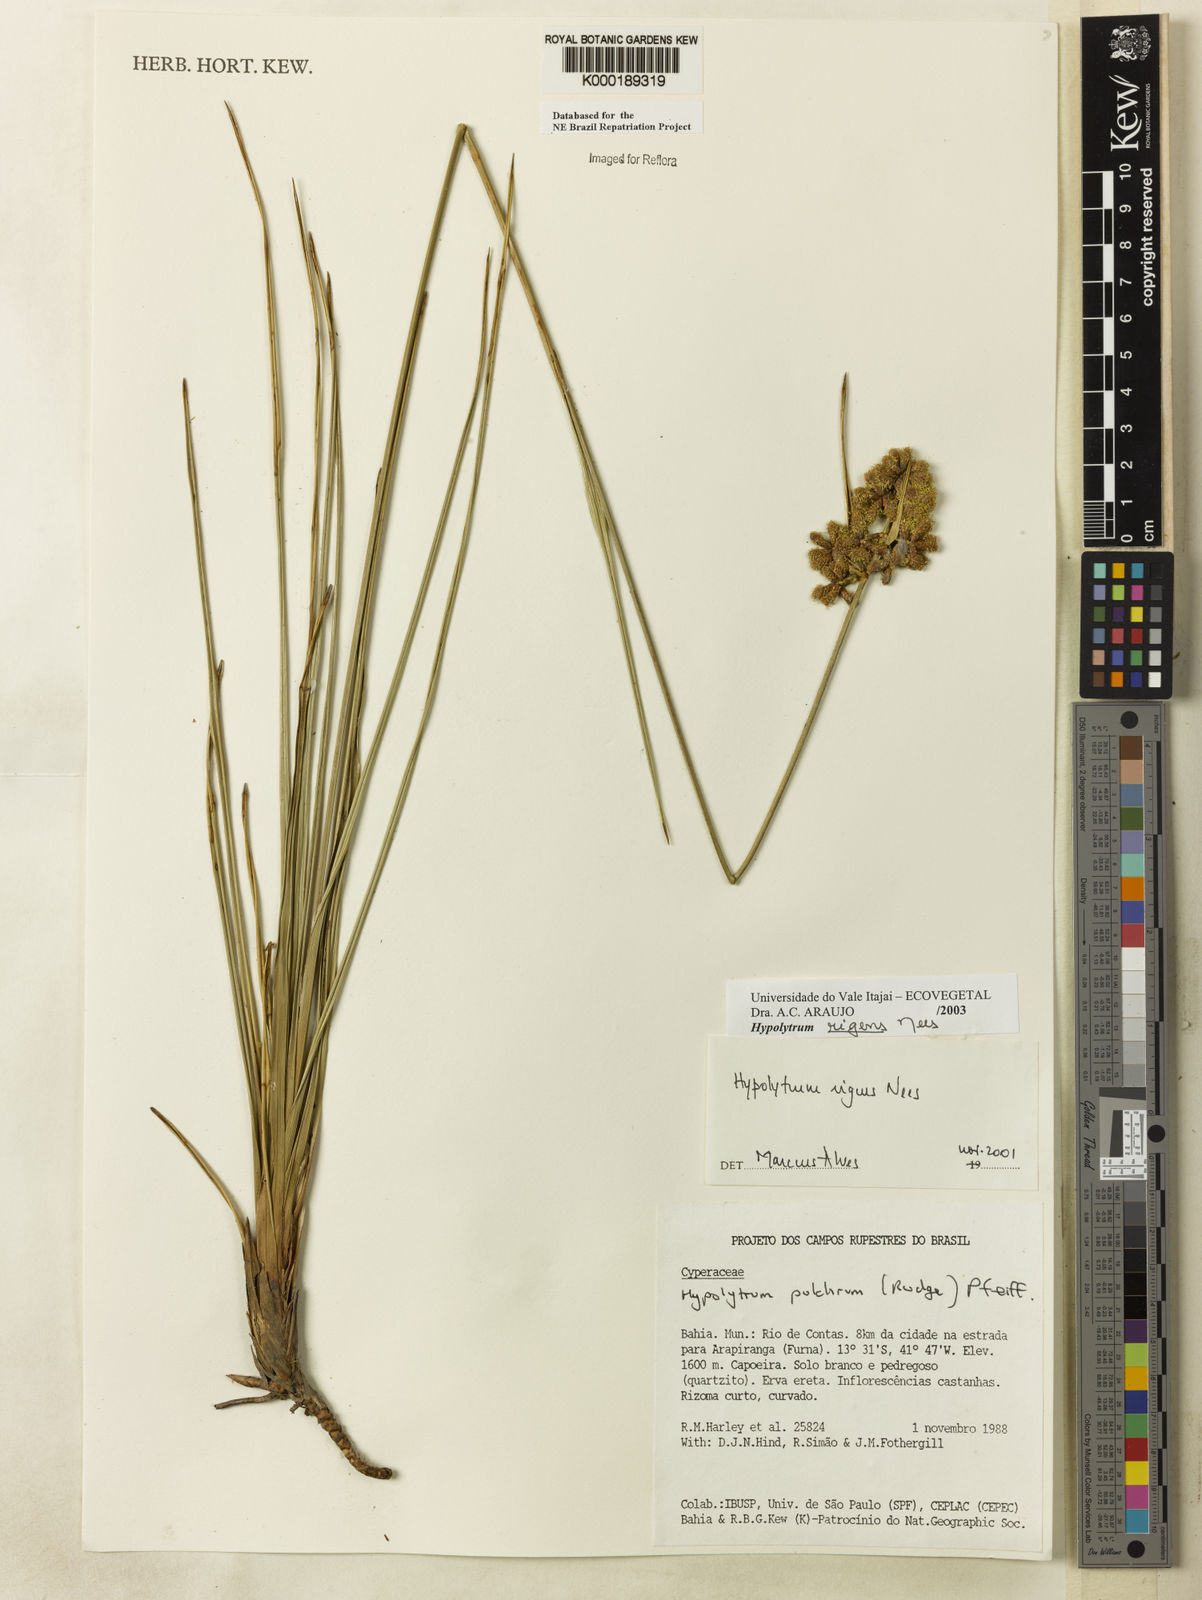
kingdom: Plantae
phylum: Tracheophyta
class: Liliopsida
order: Poales
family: Cyperaceae
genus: Hypolytrum
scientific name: Hypolytrum rigens
